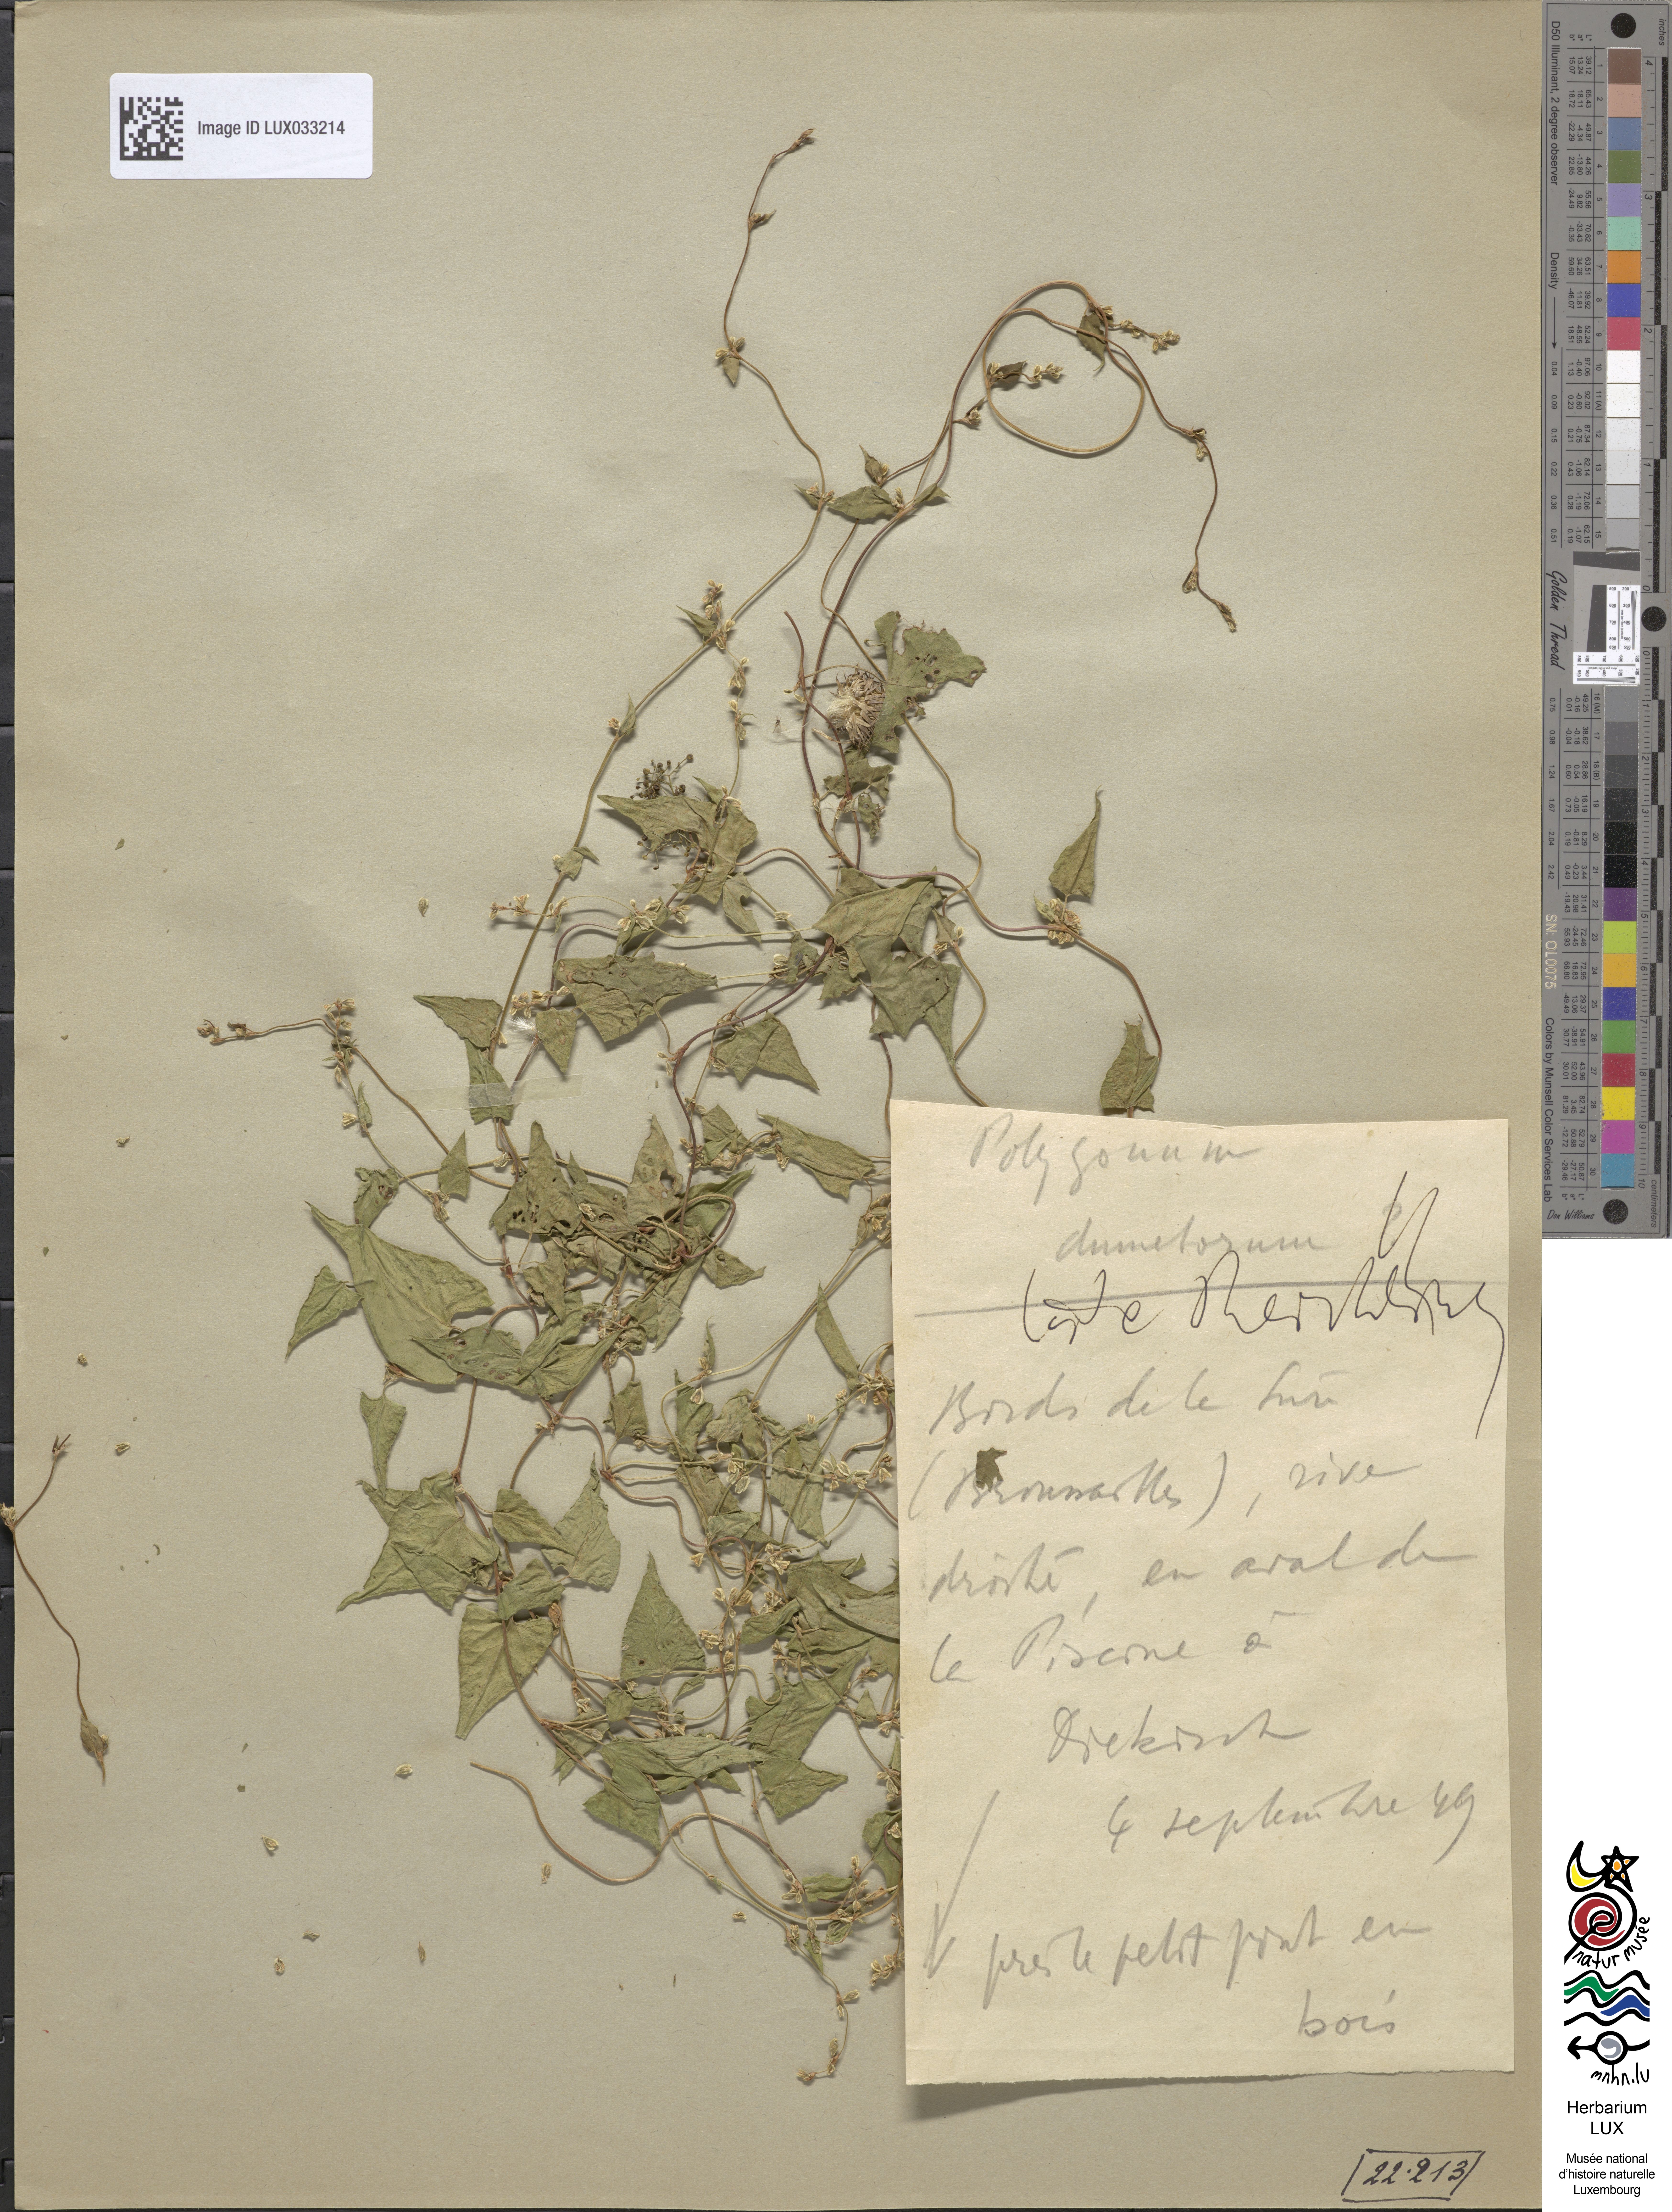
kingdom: Plantae
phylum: Tracheophyta
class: Magnoliopsida
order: Caryophyllales
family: Polygonaceae
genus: Fallopia
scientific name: Fallopia dumetorum
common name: Copse-bindweed
